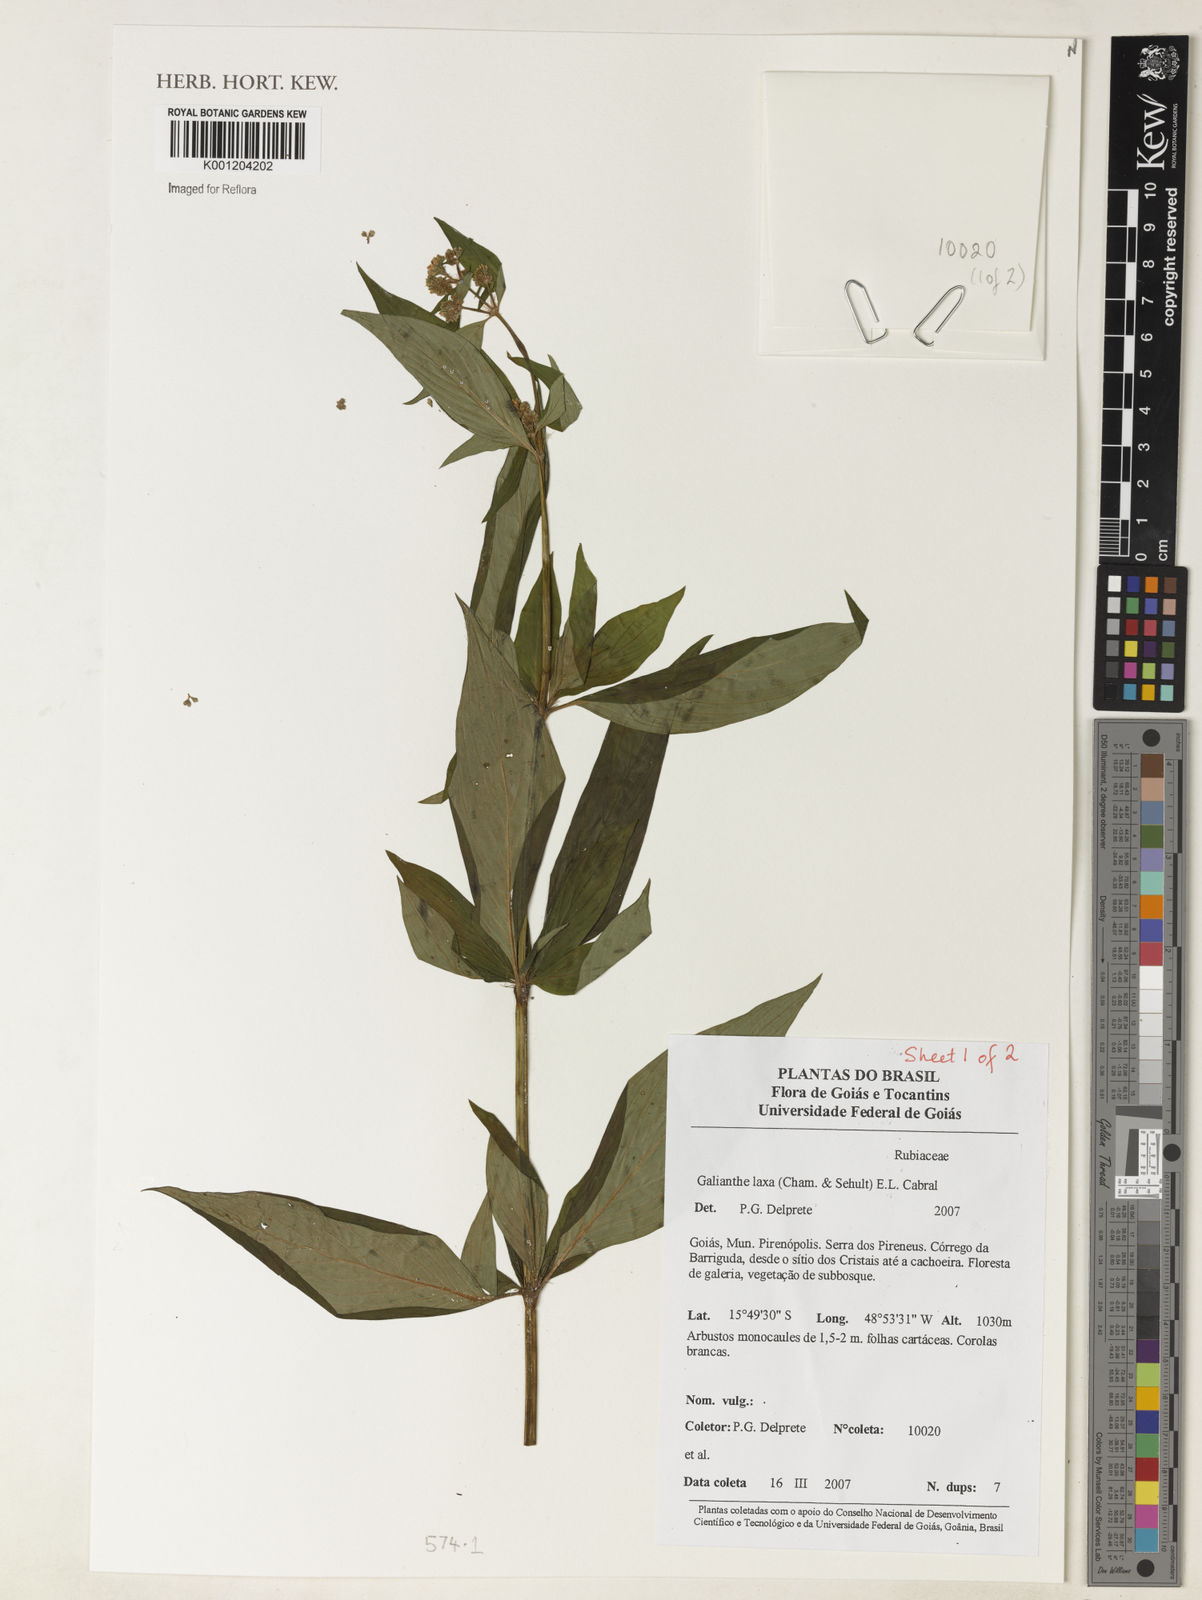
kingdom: Plantae
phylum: Tracheophyta
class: Magnoliopsida
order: Gentianales
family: Rubiaceae
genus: Galianthe
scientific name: Galianthe laxa
